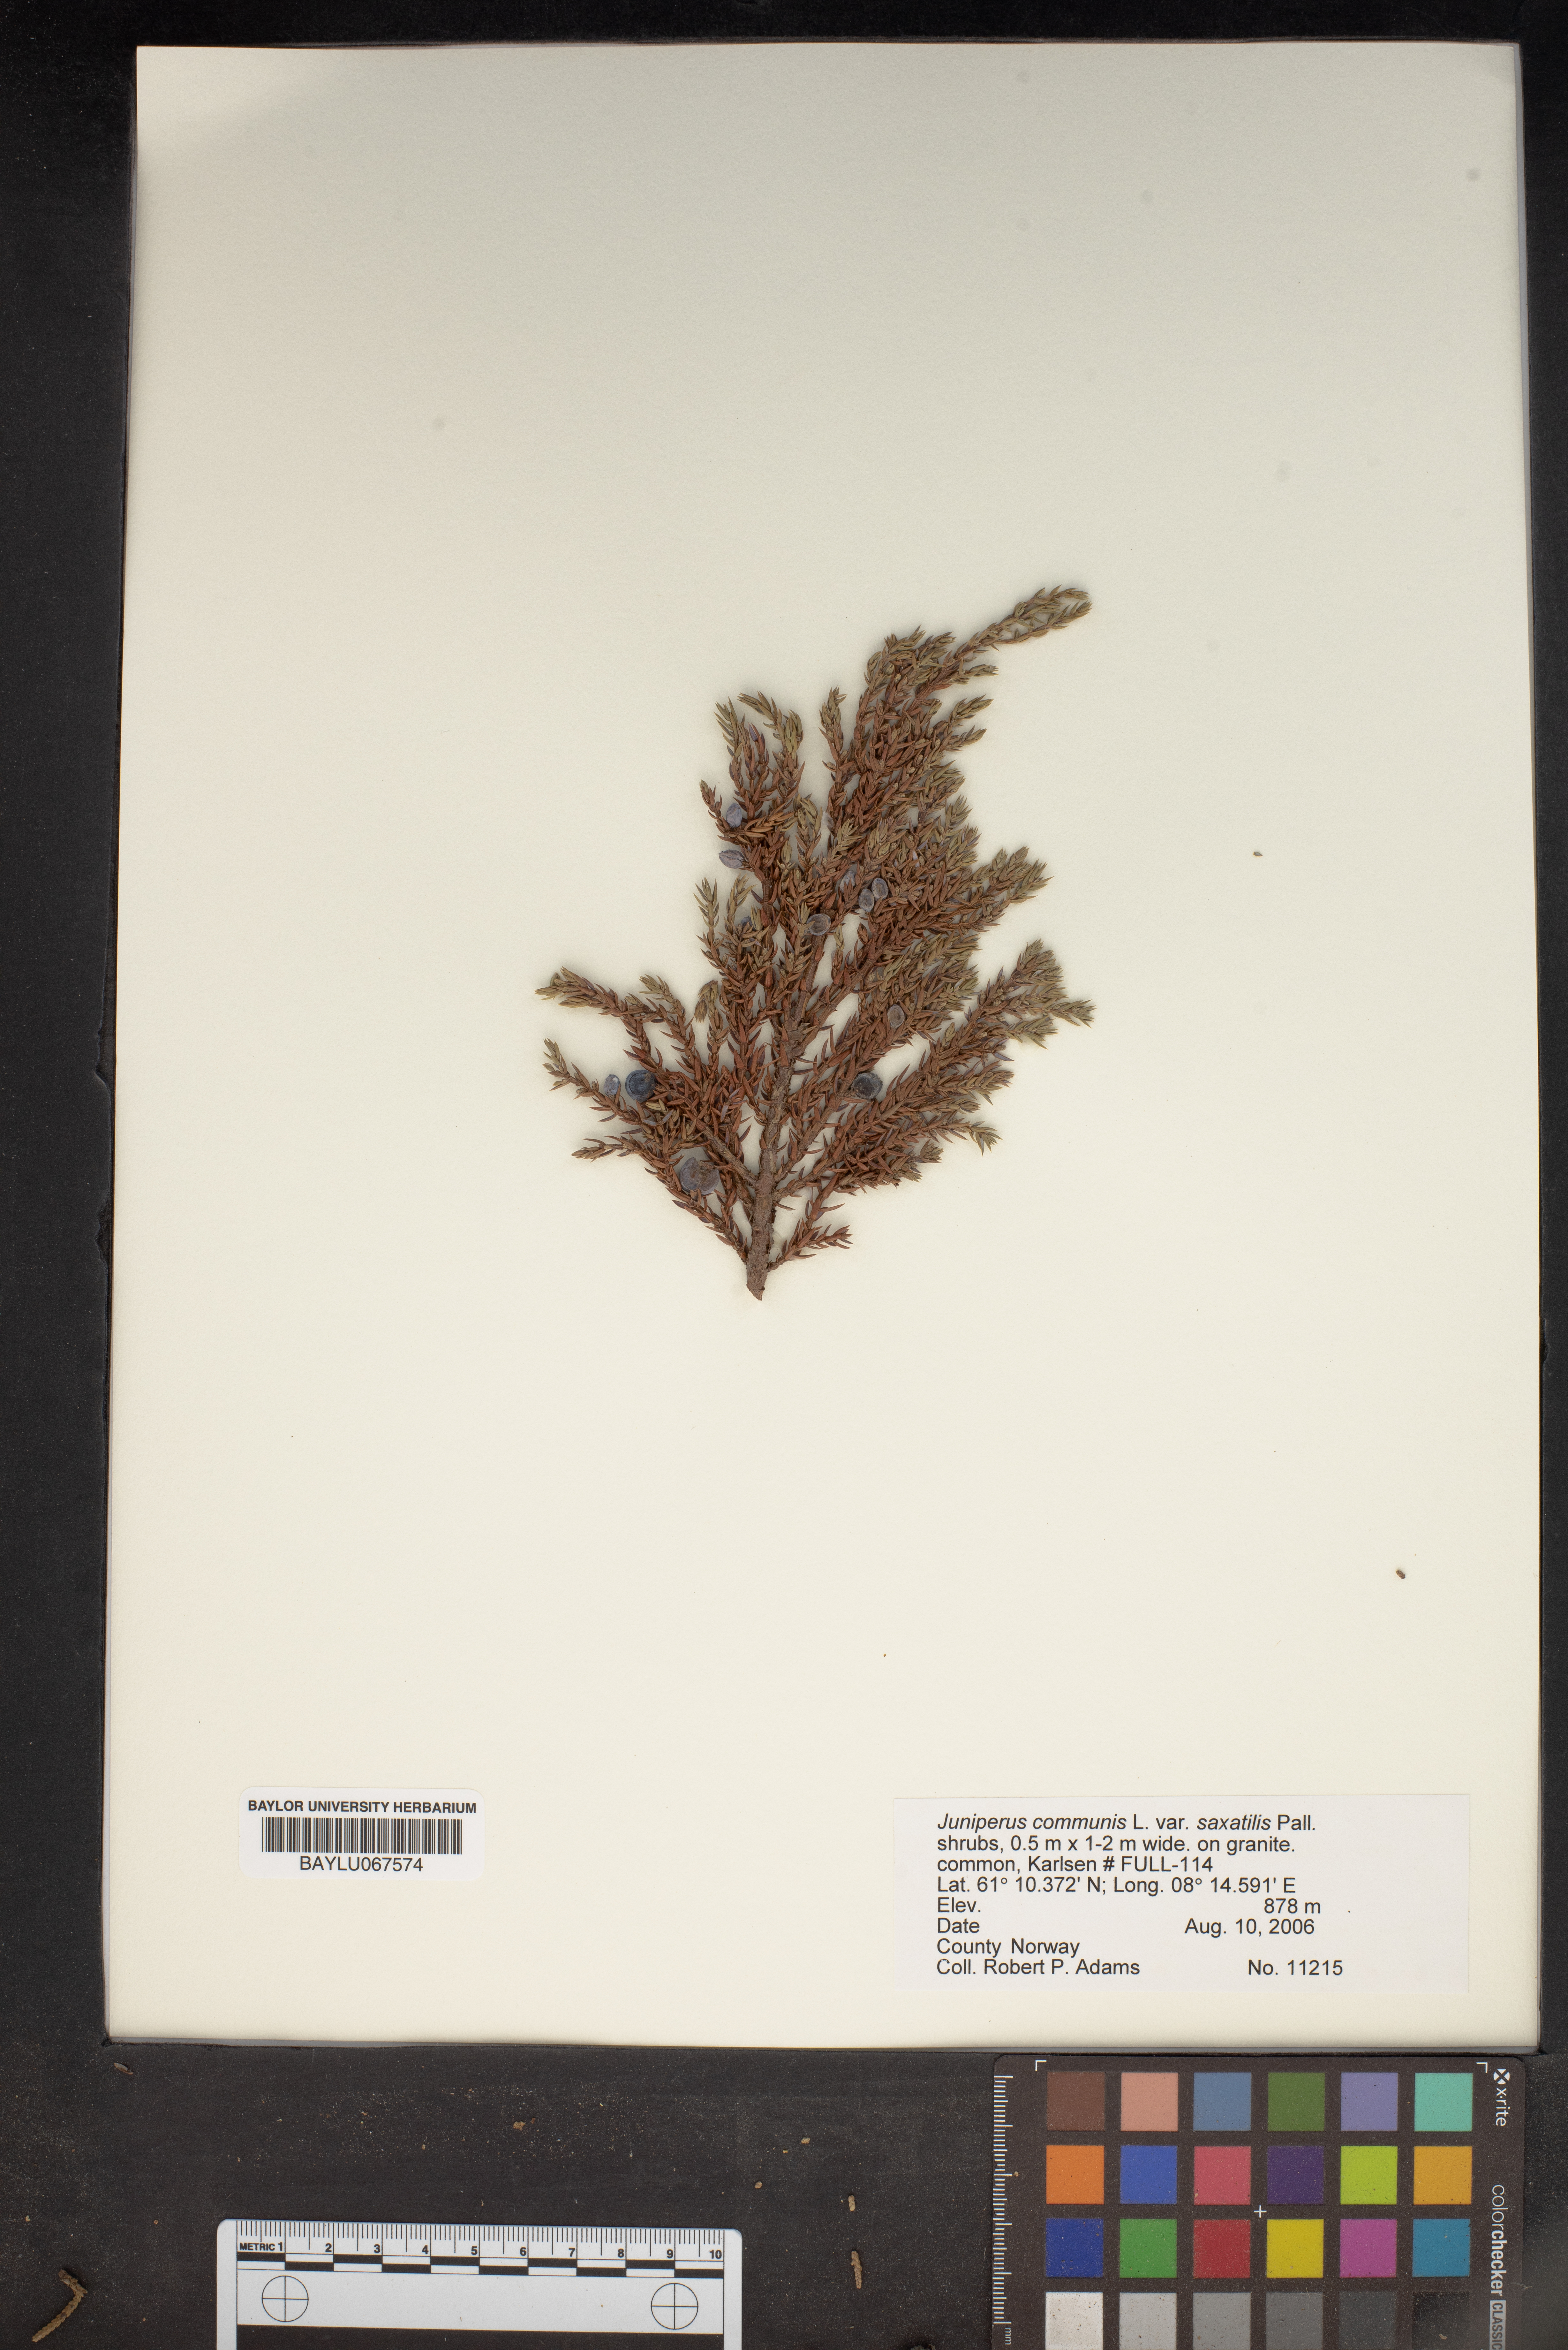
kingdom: Plantae
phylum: Tracheophyta
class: Pinopsida
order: Pinales
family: Cupressaceae
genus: Juniperus
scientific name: Juniperus communis
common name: Common juniper
